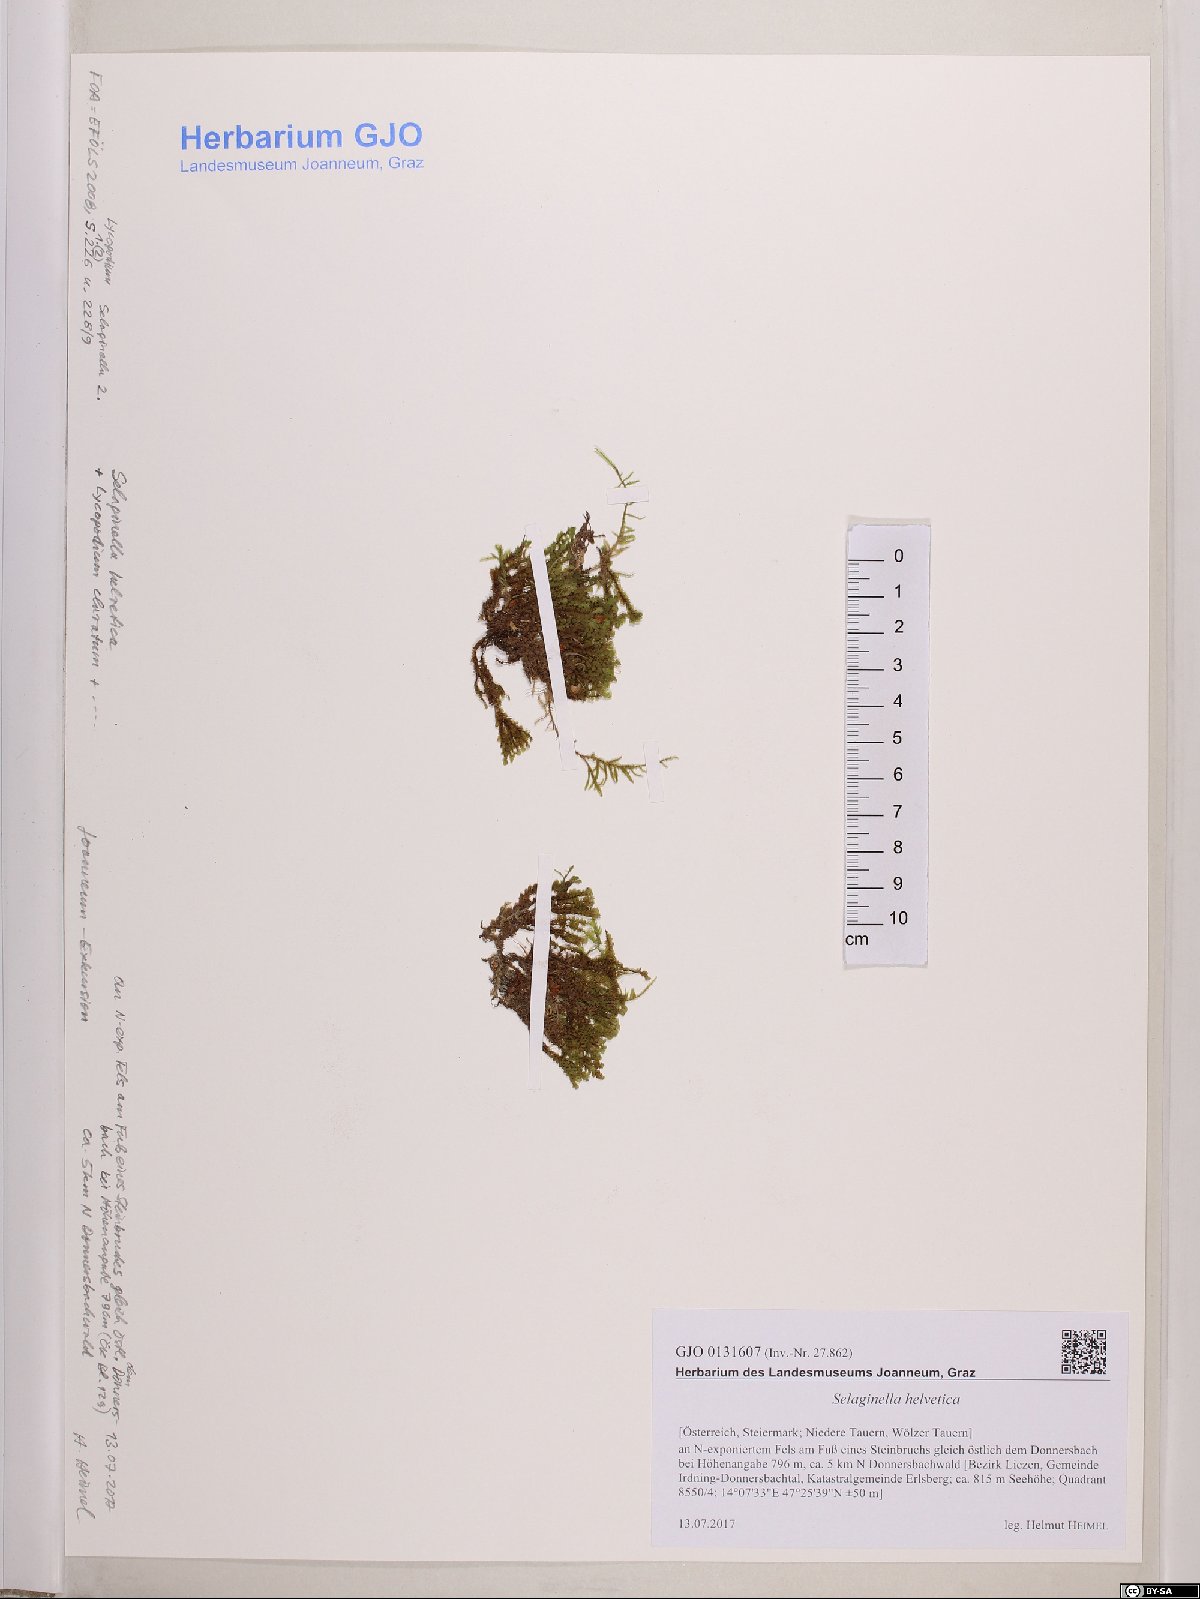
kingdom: Plantae
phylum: Marchantiophyta
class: Jungermanniopsida
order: Jungermanniales
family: Scapaniaceae
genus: Scapania
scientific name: Scapania aspera
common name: Rough earwort
